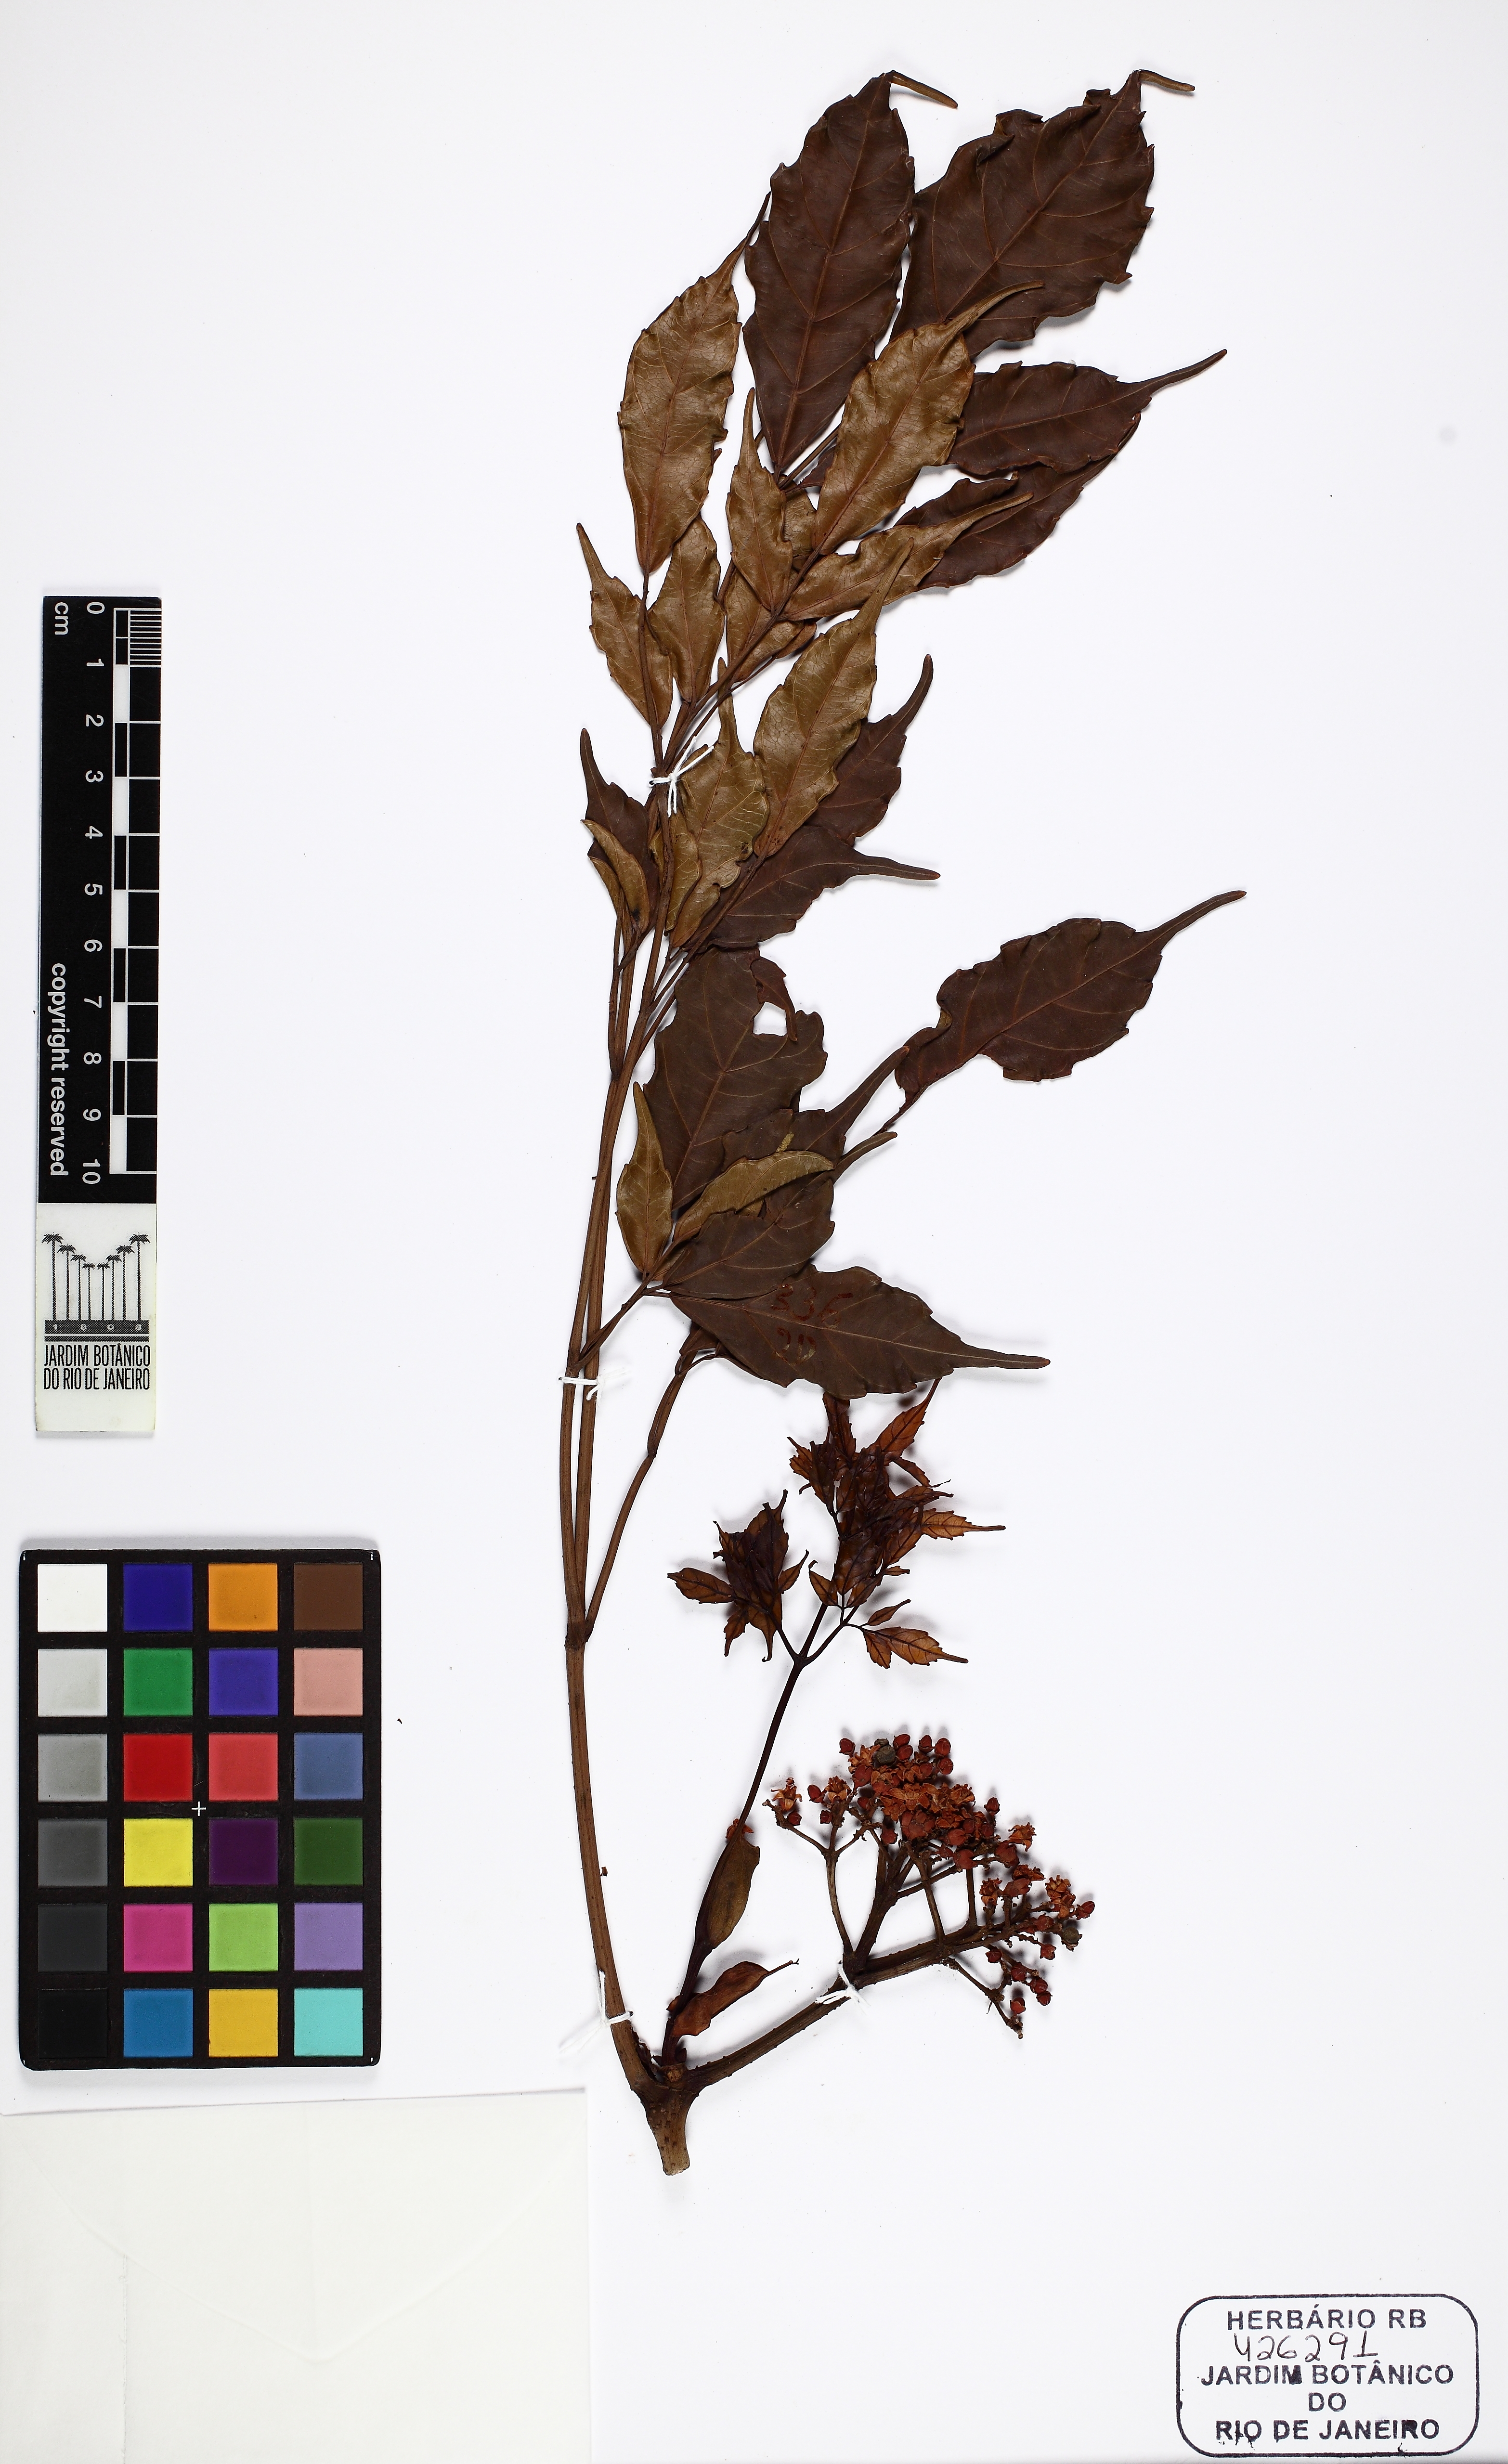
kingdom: Plantae
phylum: Tracheophyta
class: Magnoliopsida
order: Vitales
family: Vitaceae
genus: Leea
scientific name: Leea rubra
